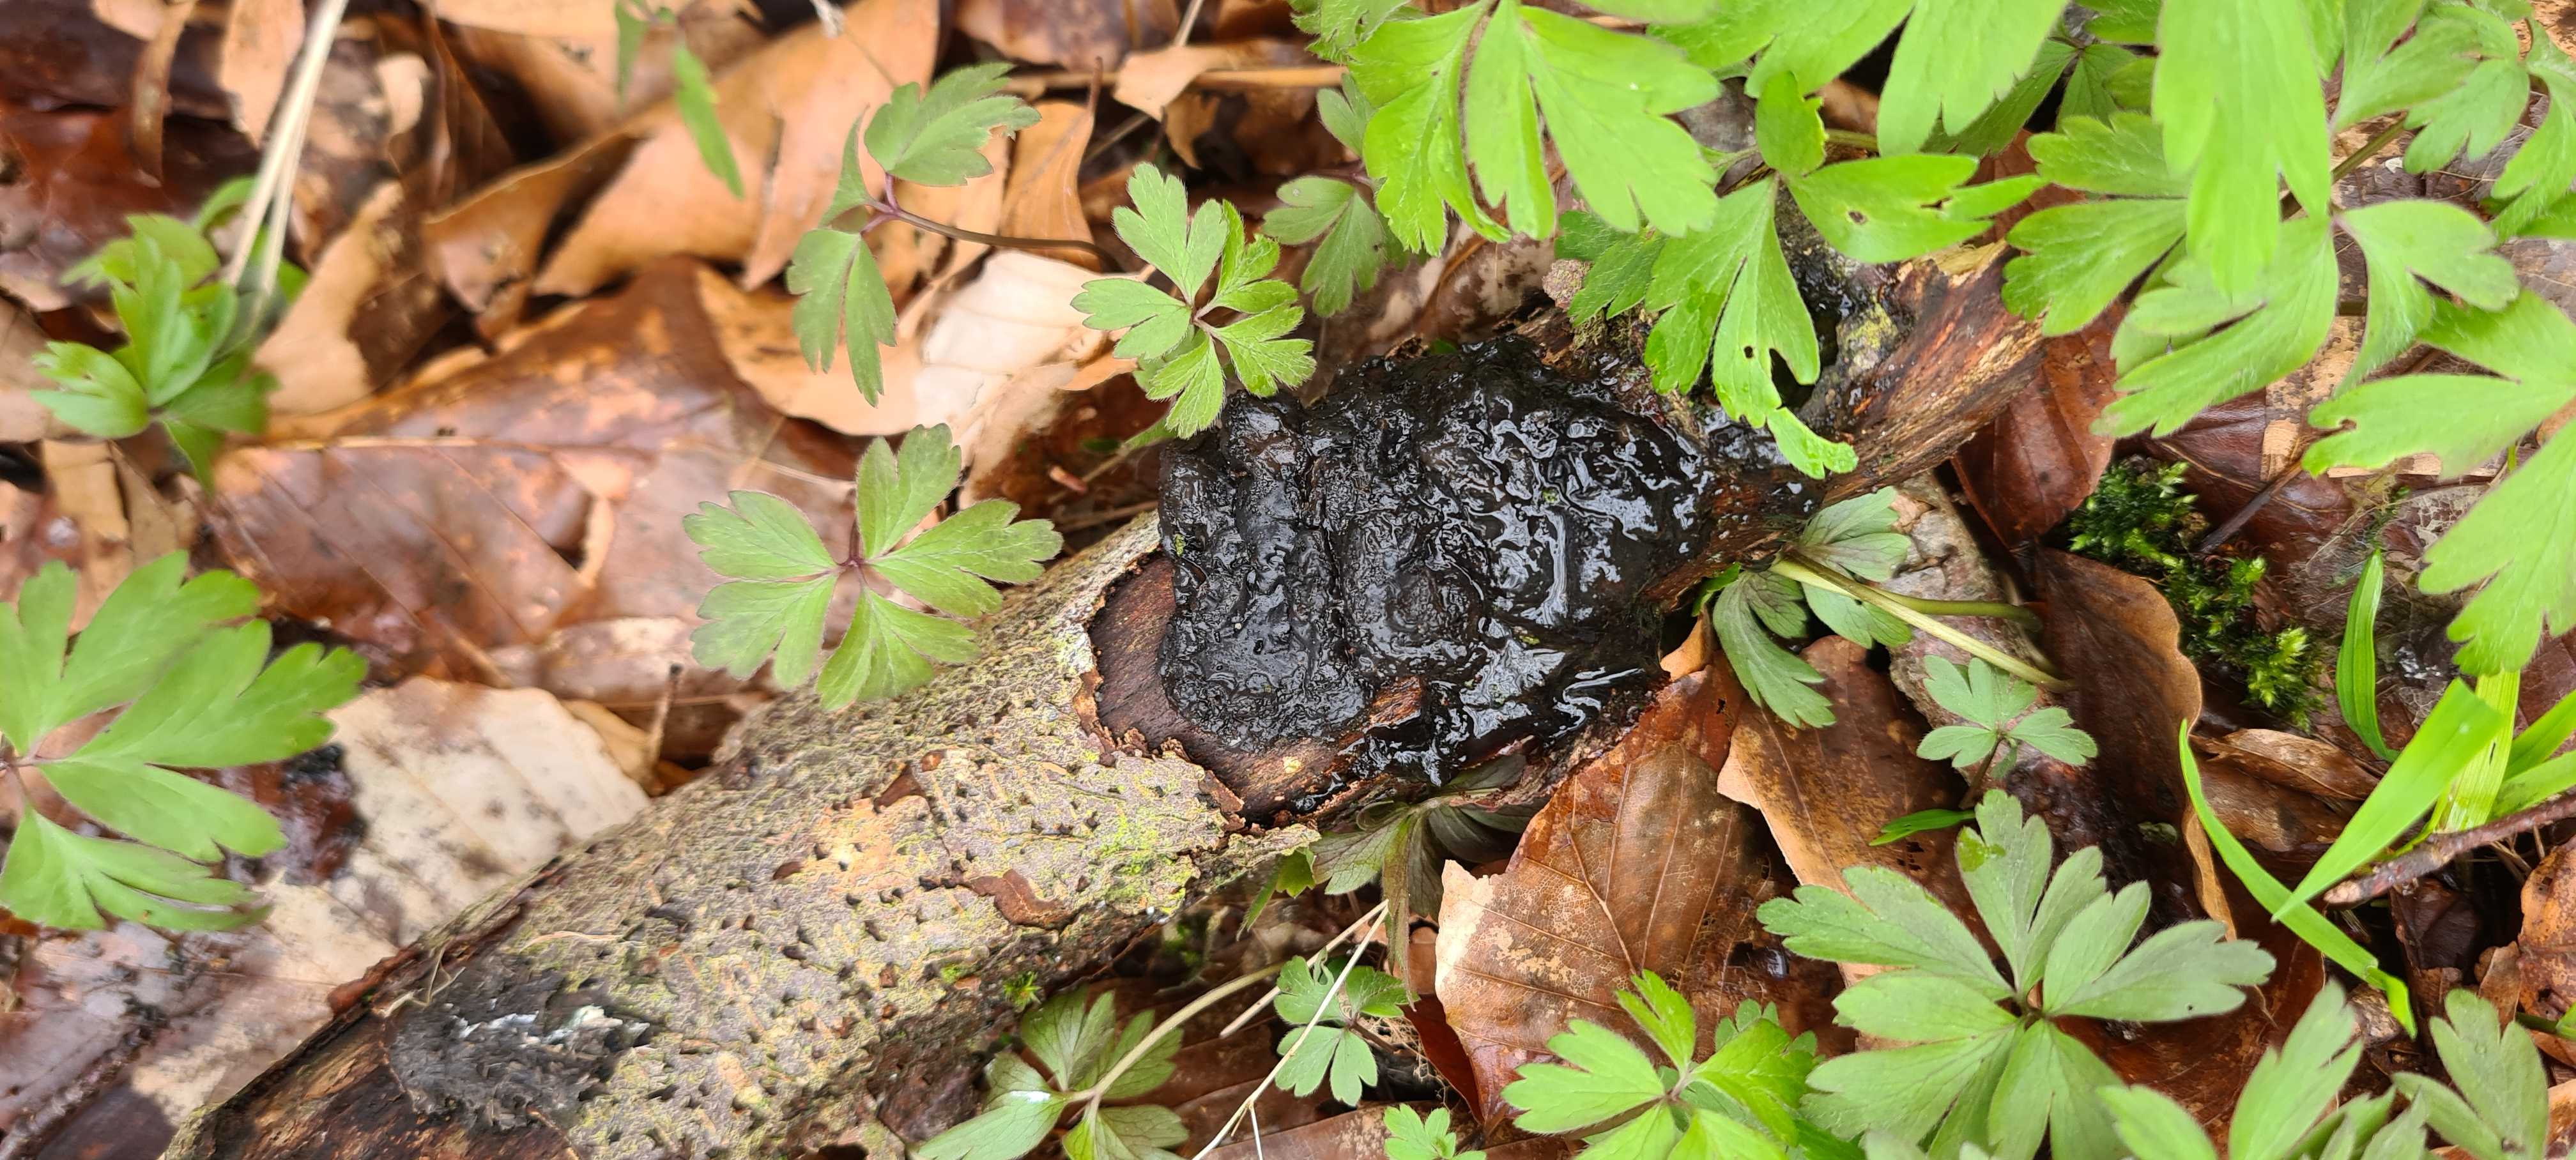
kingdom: Fungi
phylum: Basidiomycota
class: Agaricomycetes
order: Auriculariales
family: Auriculariaceae
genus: Exidia
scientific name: Exidia nigricans
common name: almindelig bævretop
